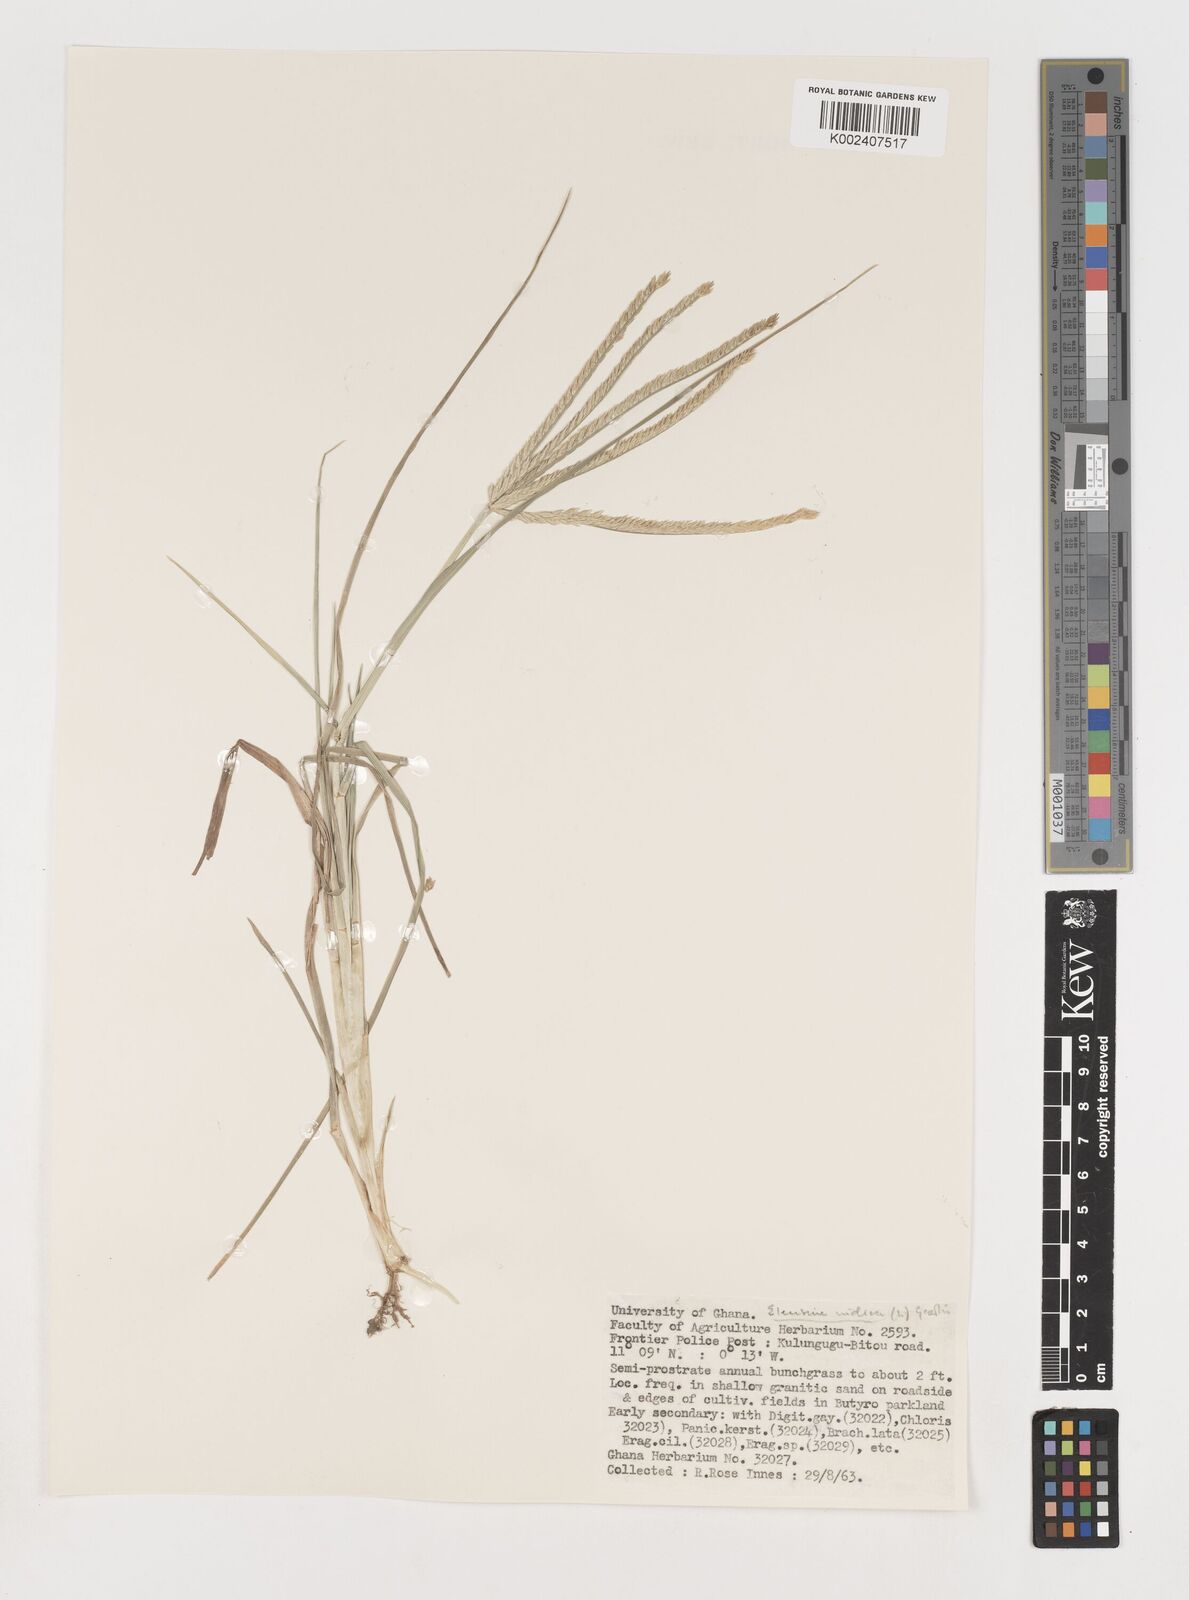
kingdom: Plantae
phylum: Tracheophyta
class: Liliopsida
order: Poales
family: Poaceae
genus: Eleusine
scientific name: Eleusine africana
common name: Wild african finger millet
